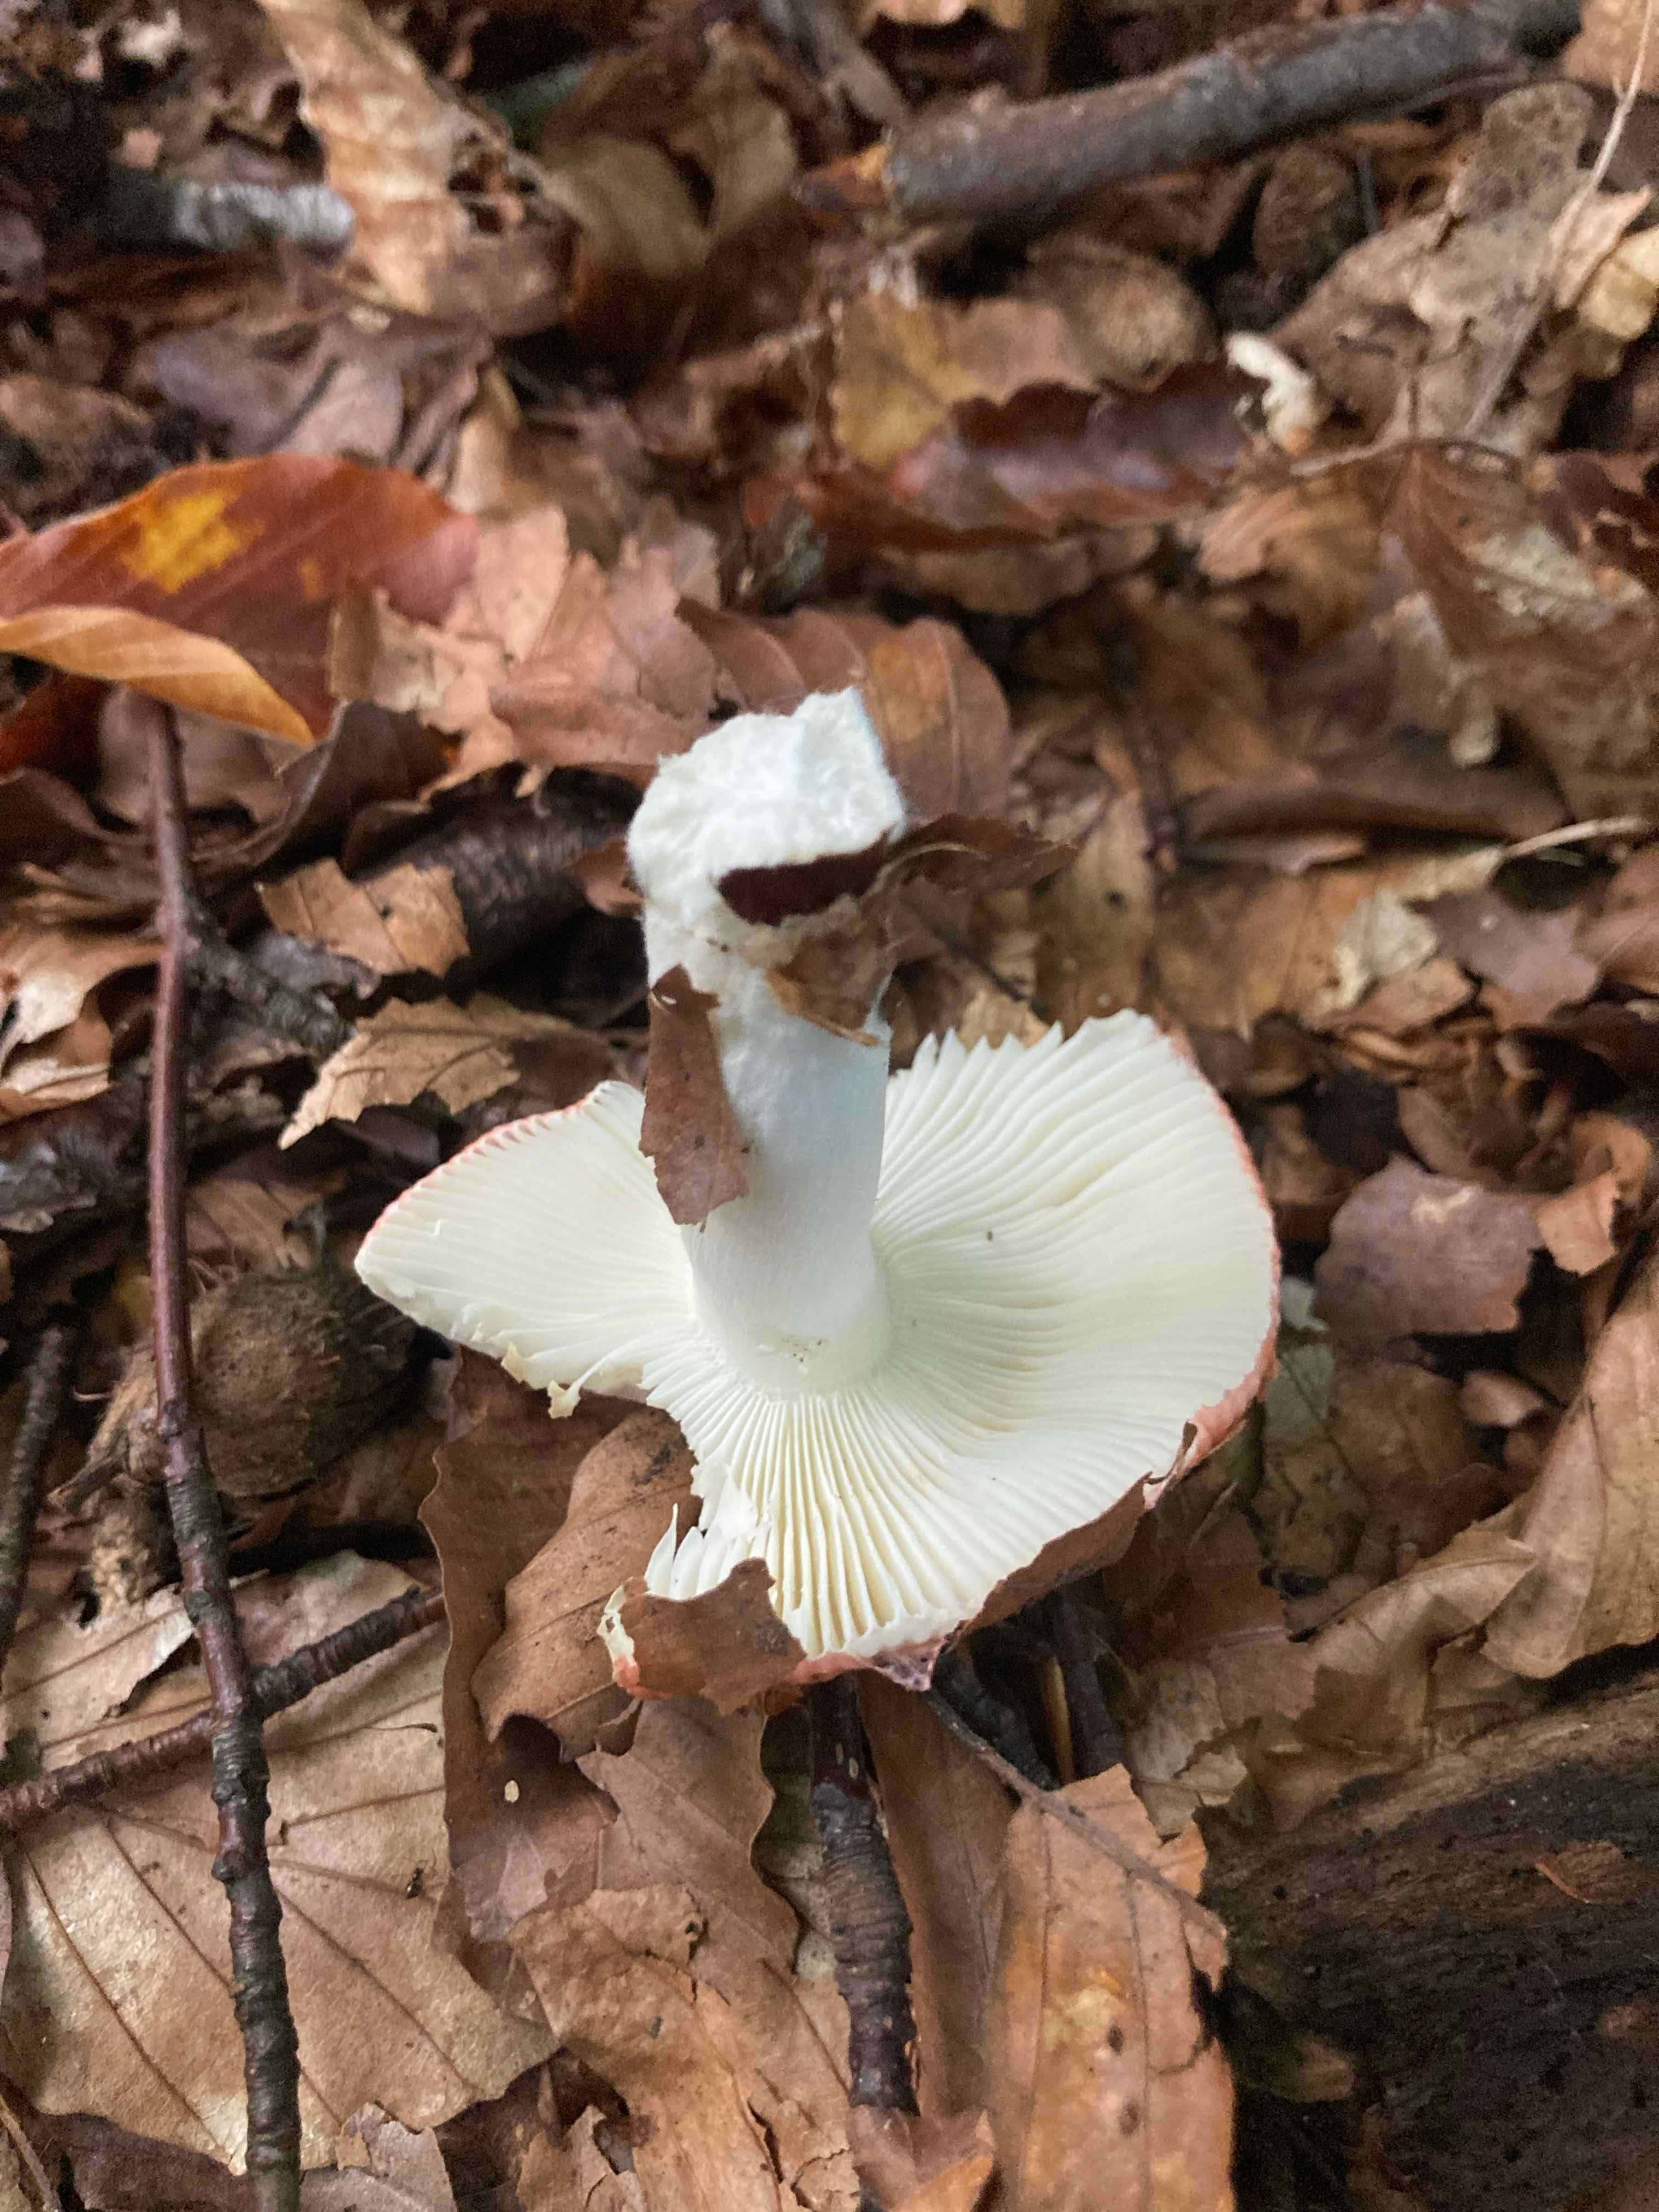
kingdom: Fungi
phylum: Basidiomycota
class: Agaricomycetes
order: Russulales
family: Russulaceae
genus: Russula
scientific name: Russula
